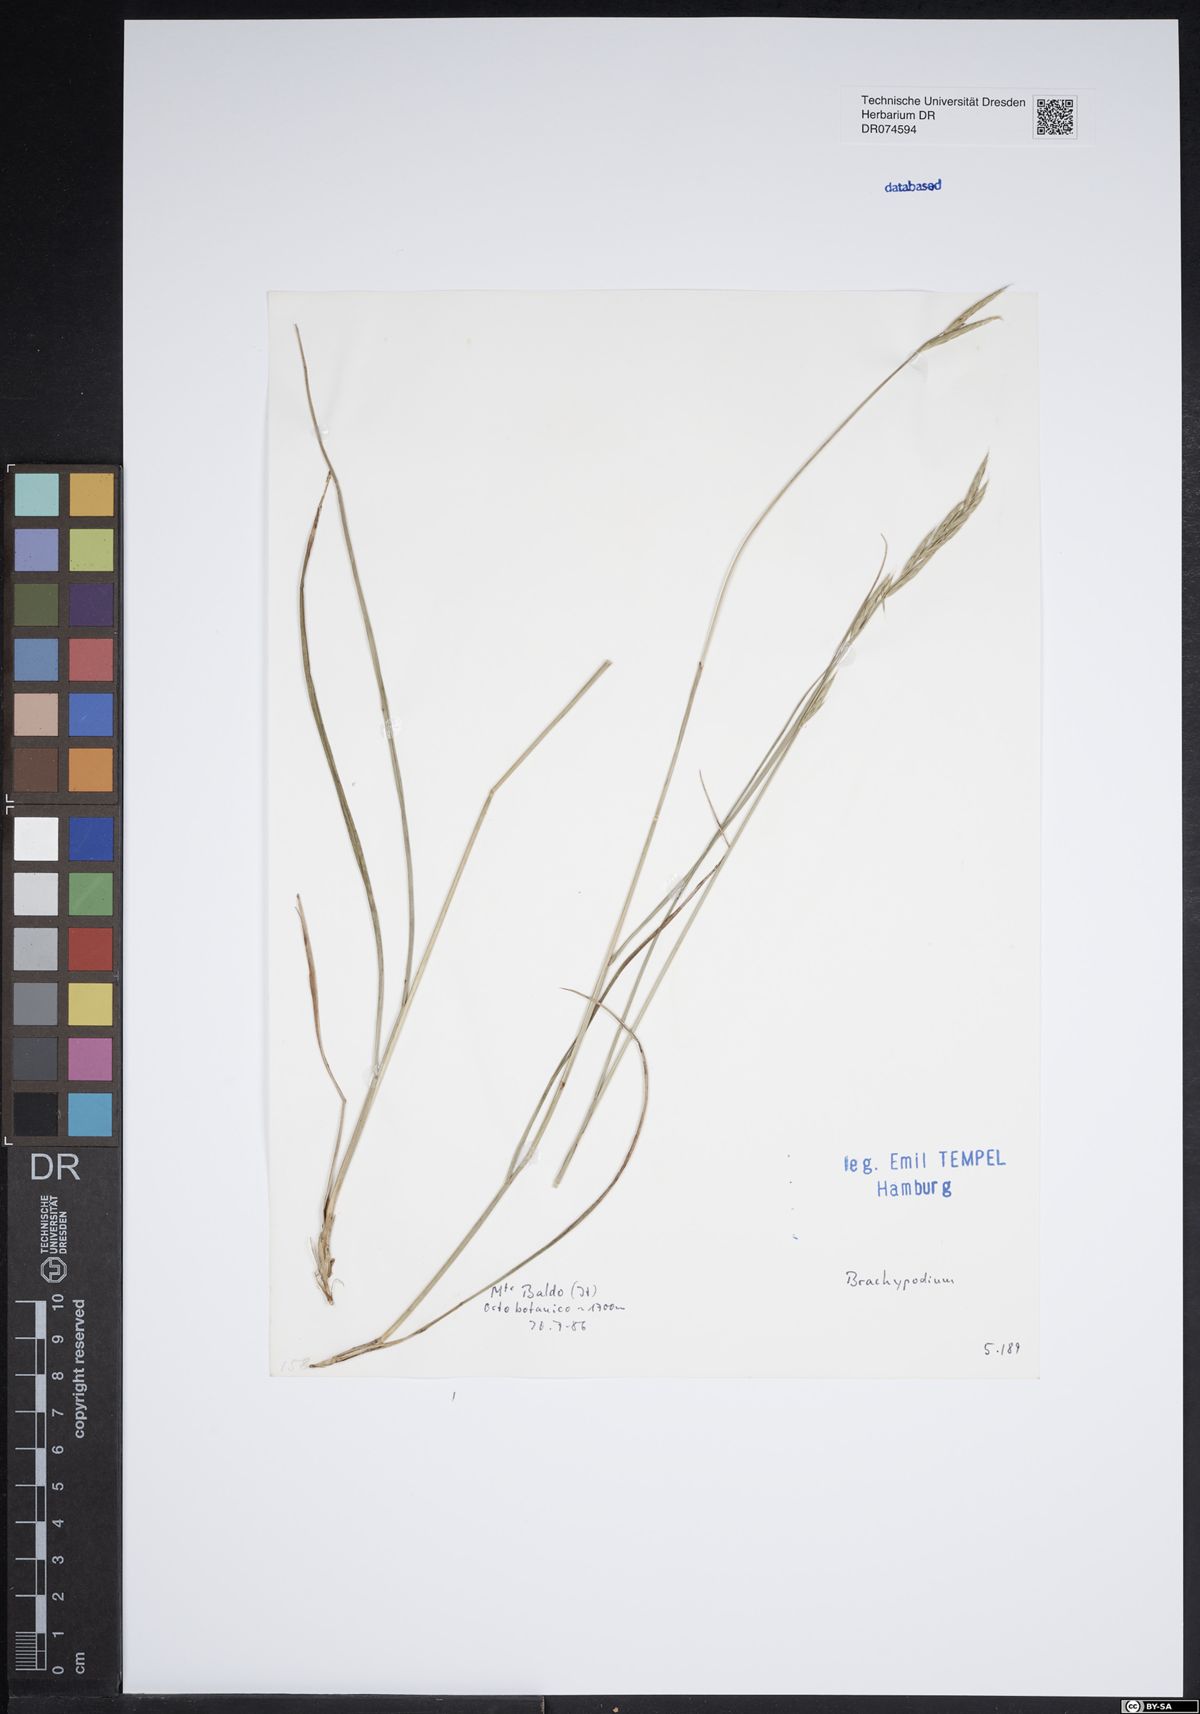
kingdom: Plantae
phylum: Tracheophyta
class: Liliopsida
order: Poales
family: Poaceae
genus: Brachypodium
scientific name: Brachypodium
